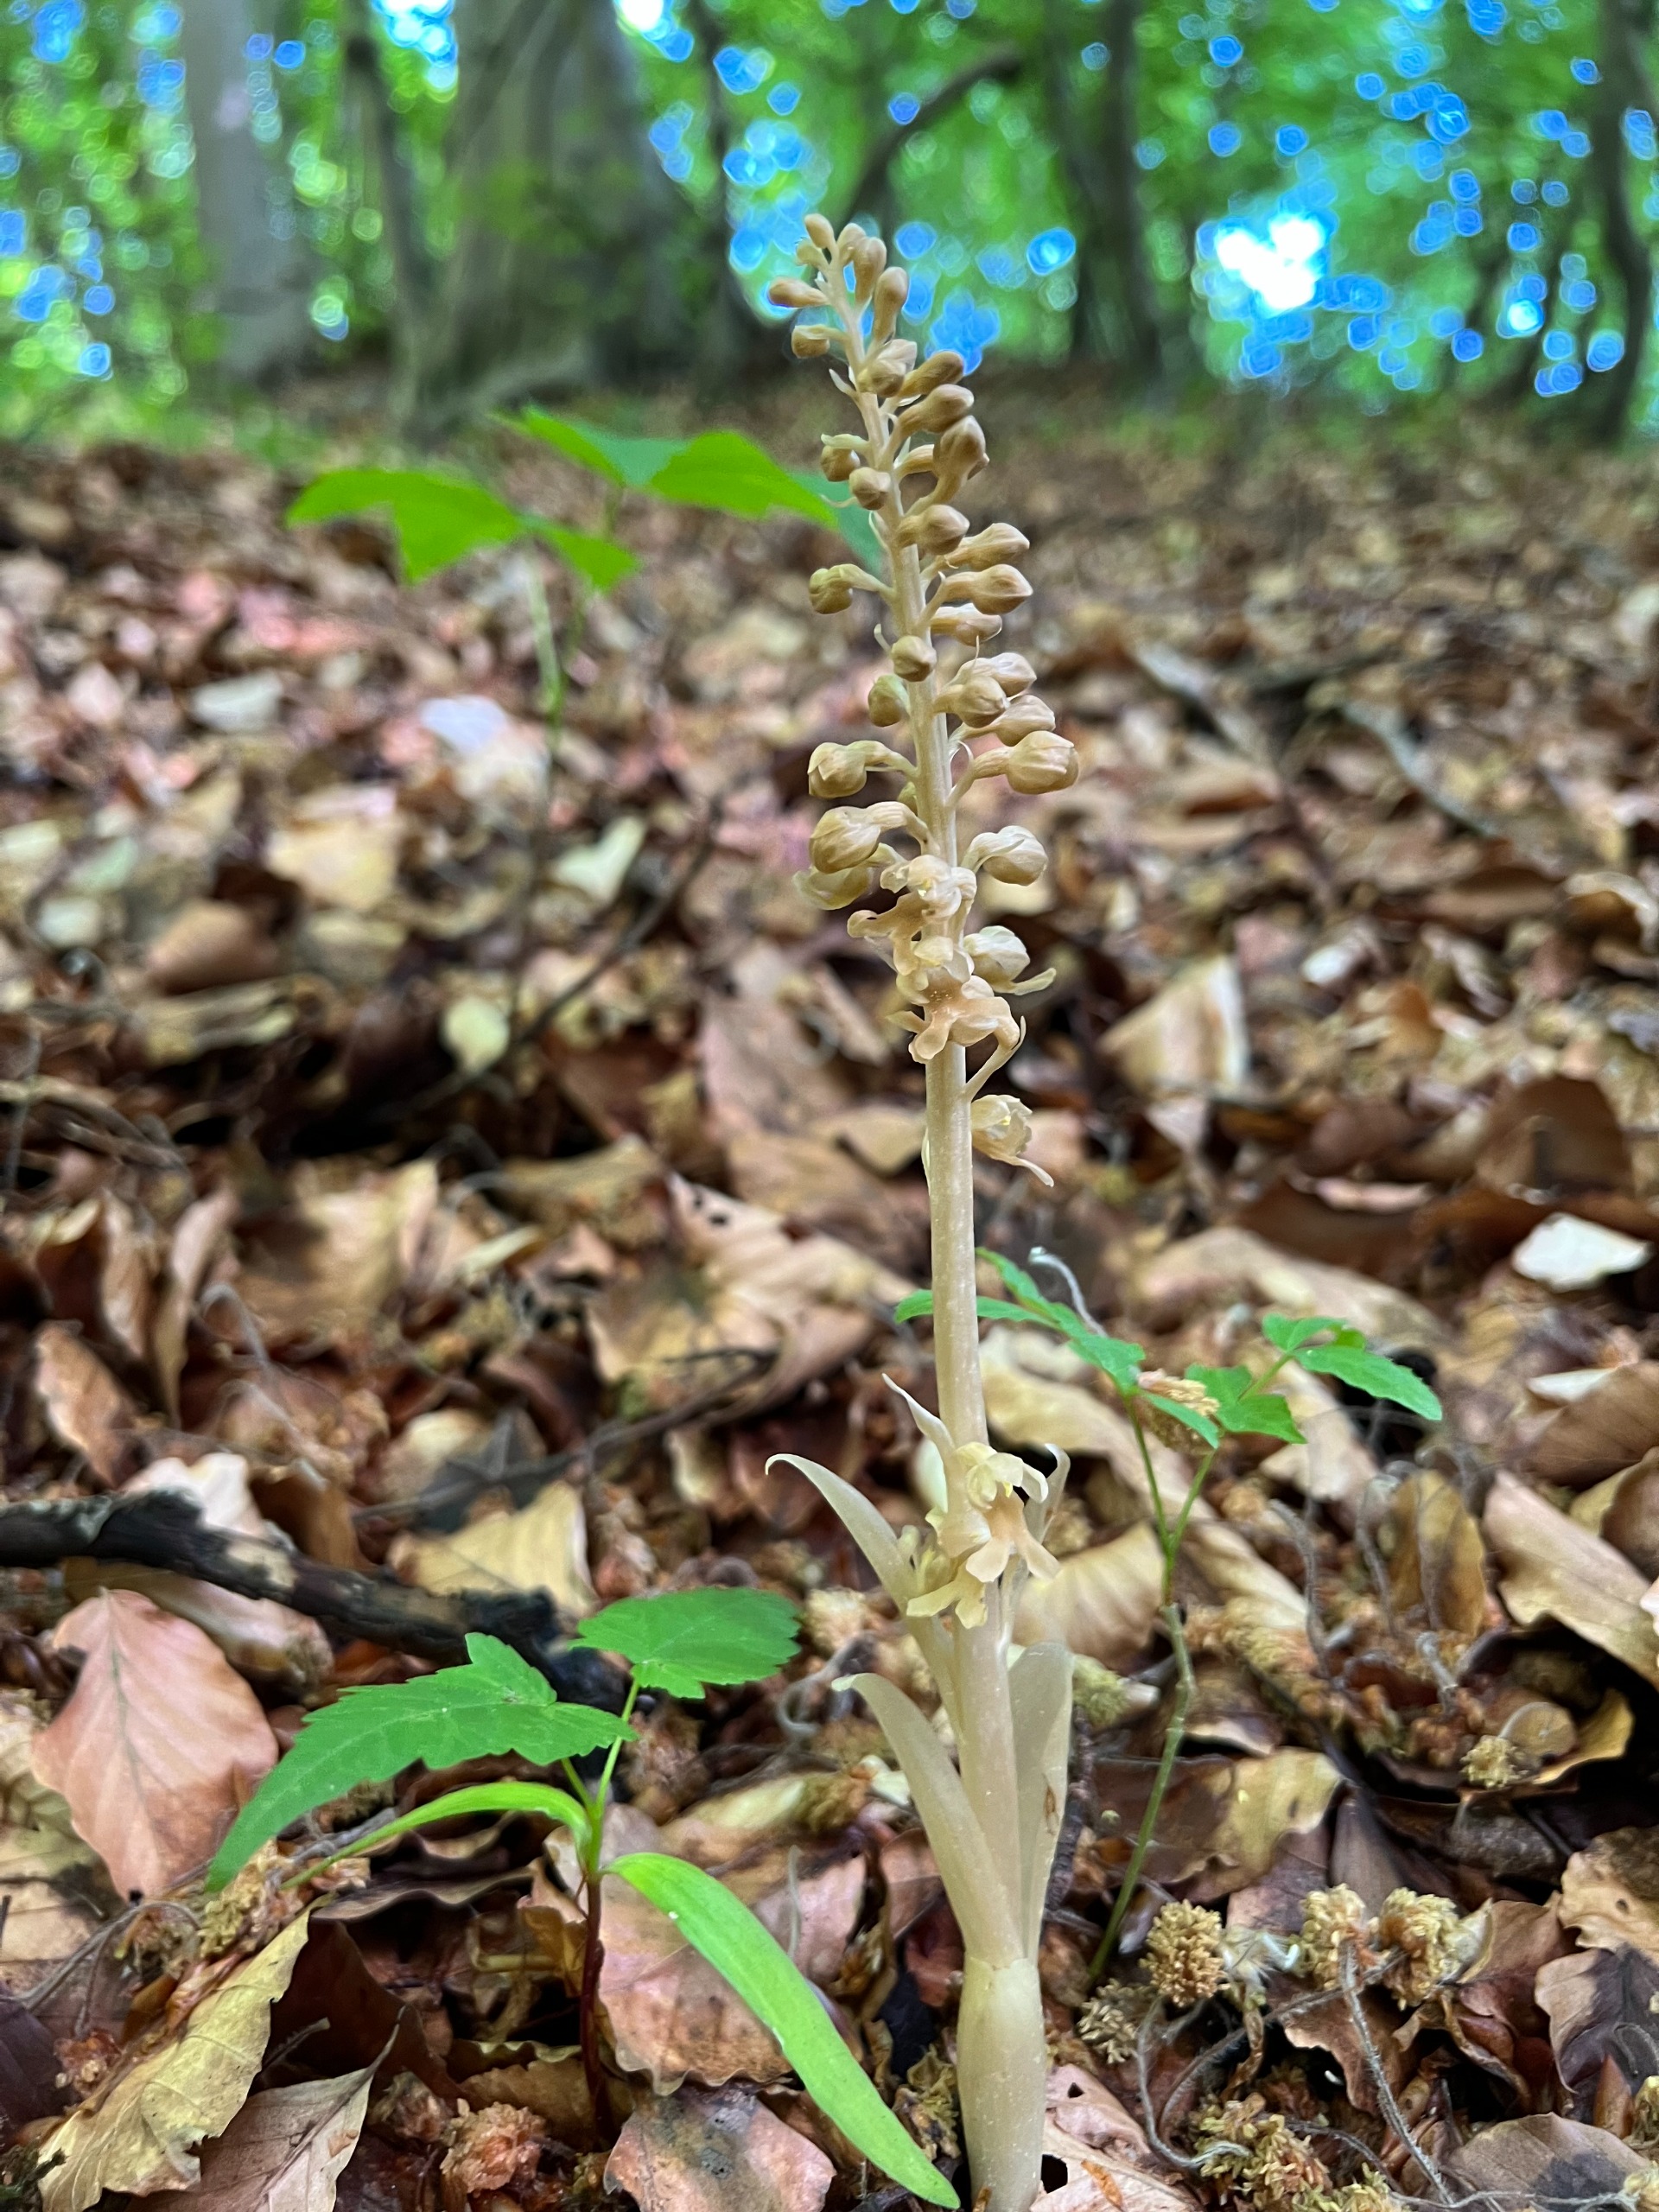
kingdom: Plantae
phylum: Tracheophyta
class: Liliopsida
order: Asparagales
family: Orchidaceae
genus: Neottia
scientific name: Neottia nidus-avis
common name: Rederod
